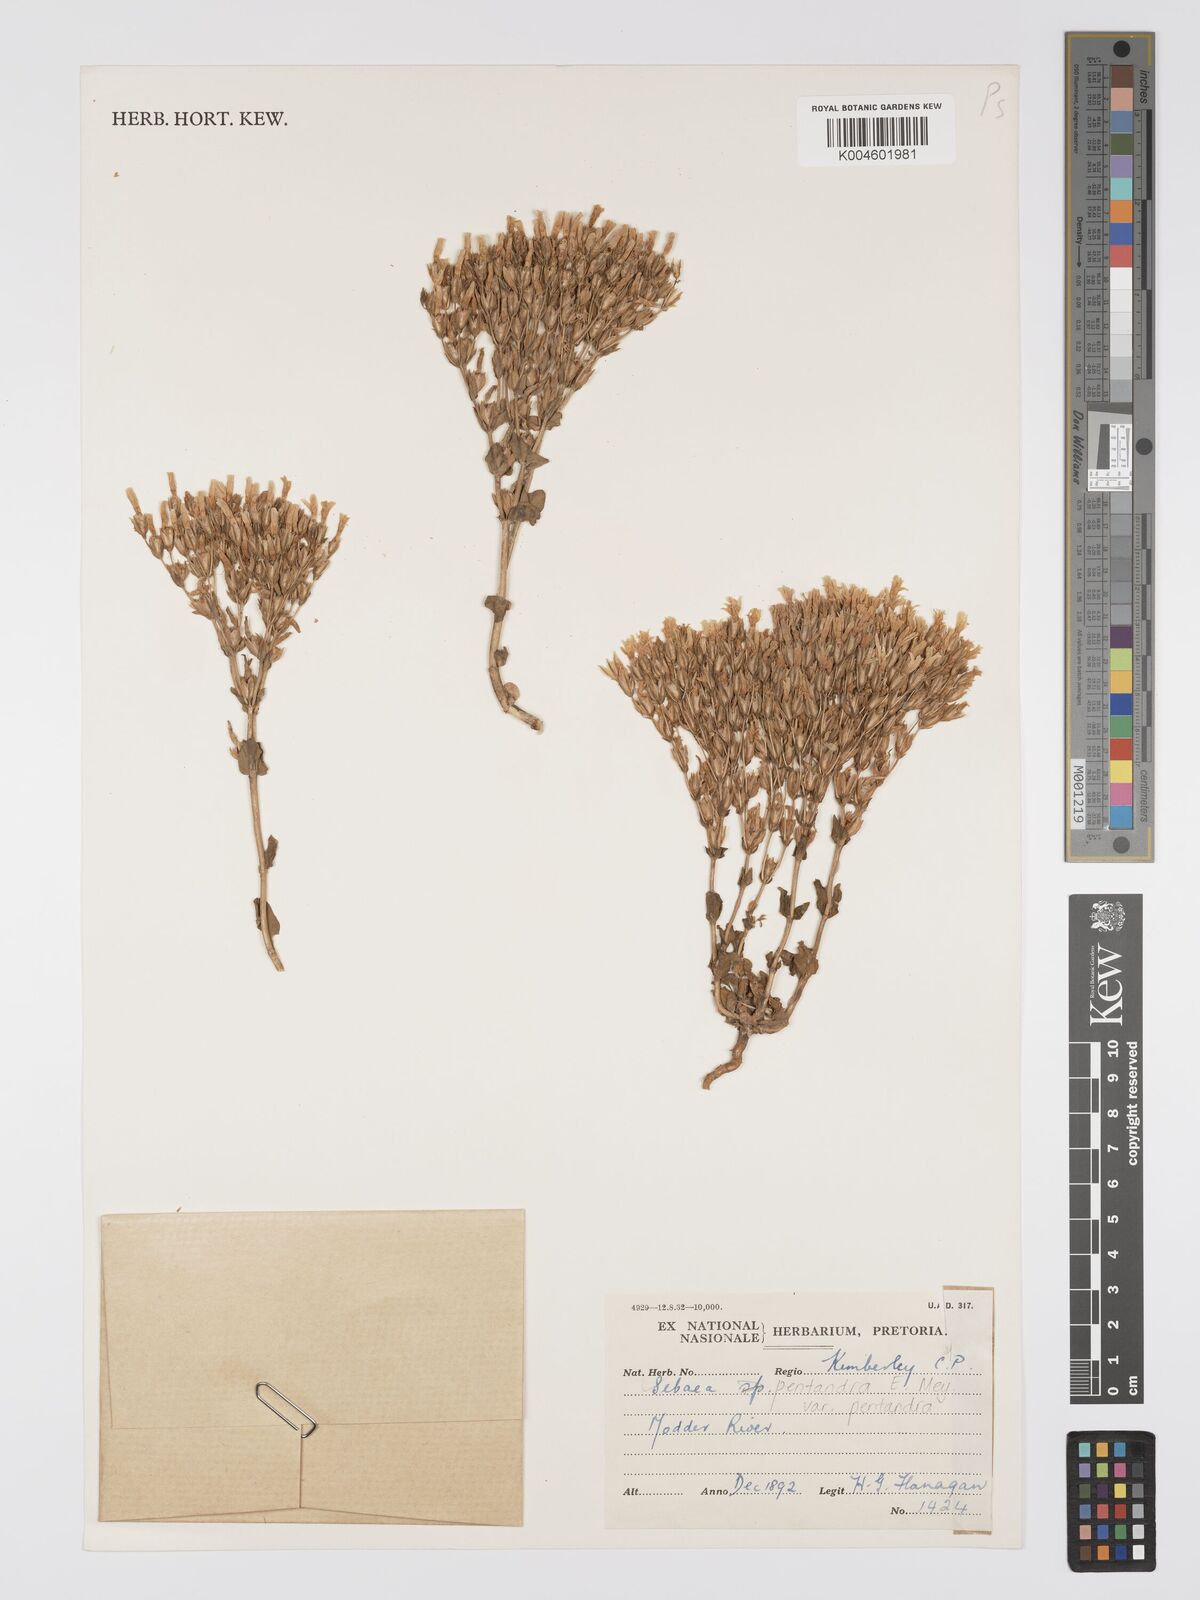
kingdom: Plantae
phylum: Tracheophyta
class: Magnoliopsida
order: Gentianales
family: Gentianaceae
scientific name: Gentianaceae
